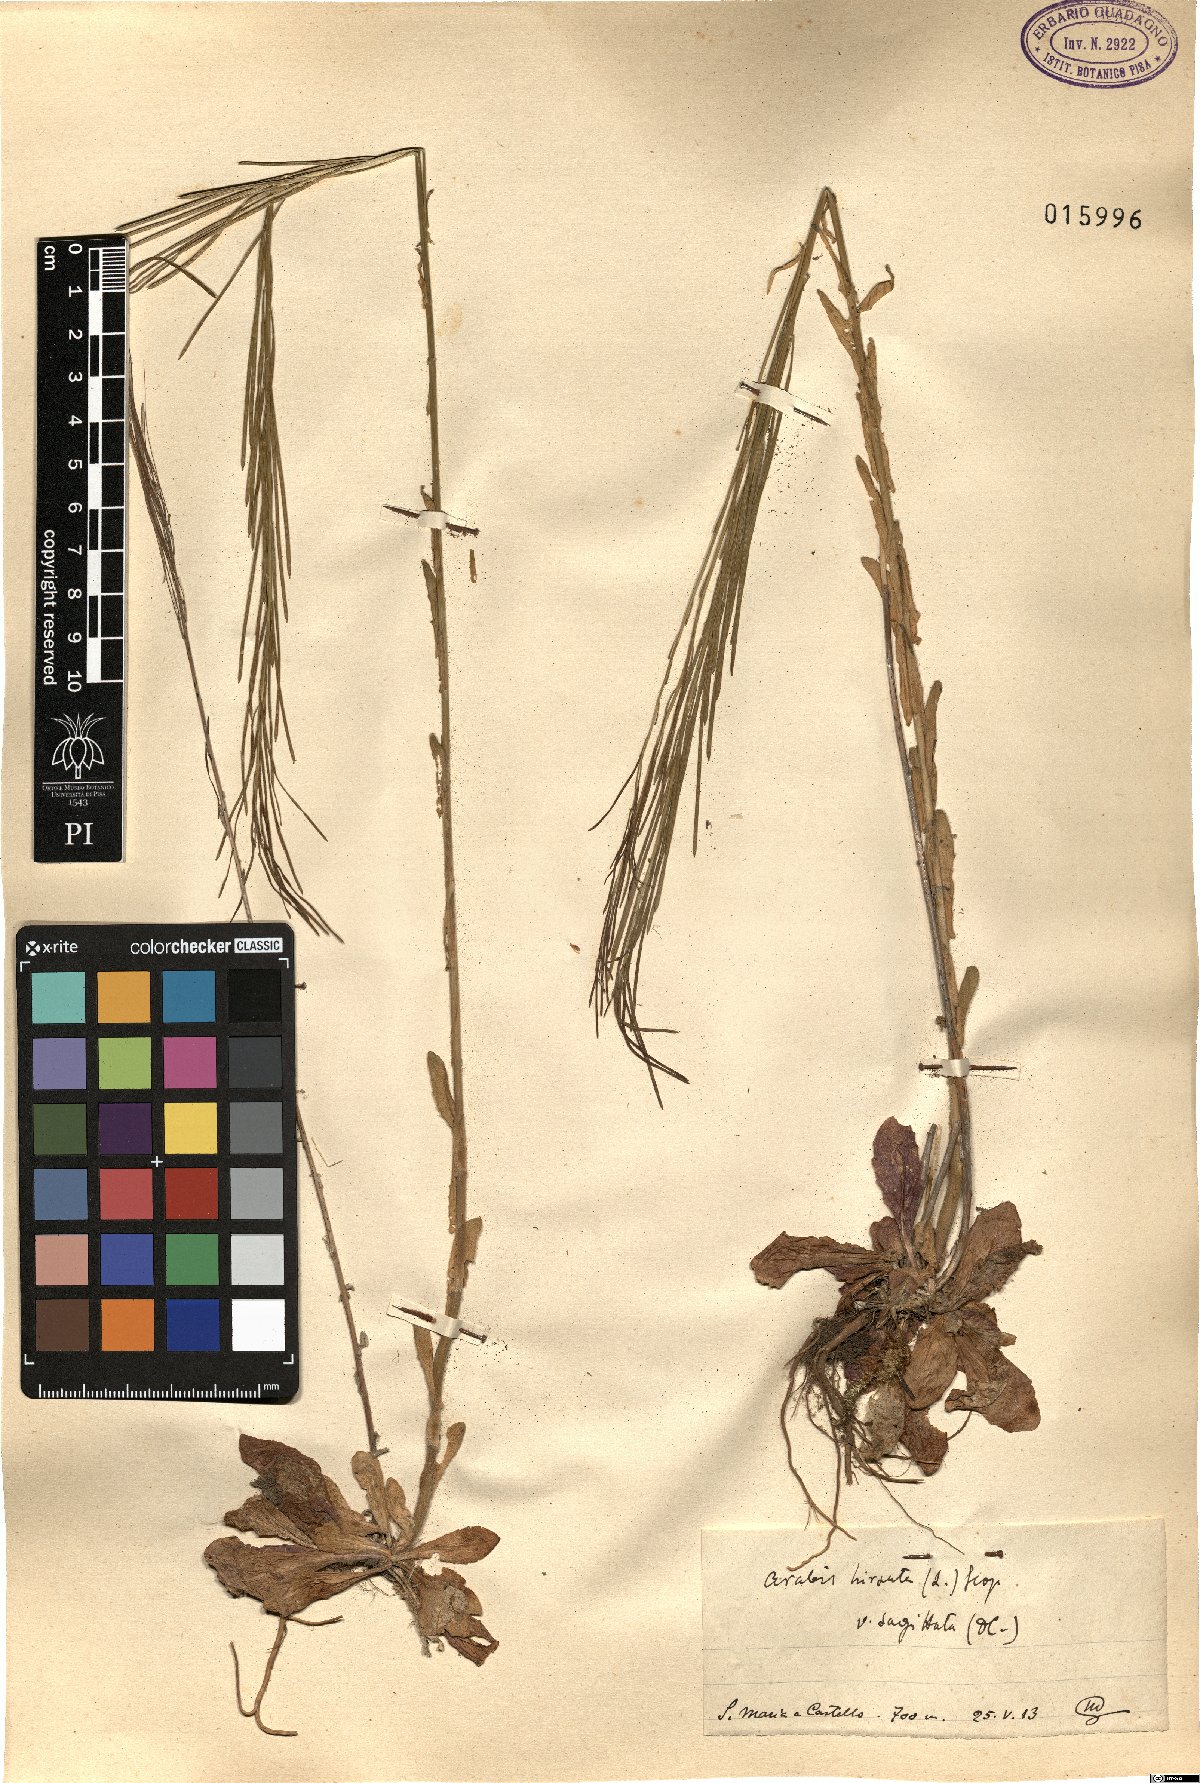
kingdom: Plantae
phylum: Tracheophyta
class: Magnoliopsida
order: Brassicales
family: Brassicaceae
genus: Arabis
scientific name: Arabis sagittata
